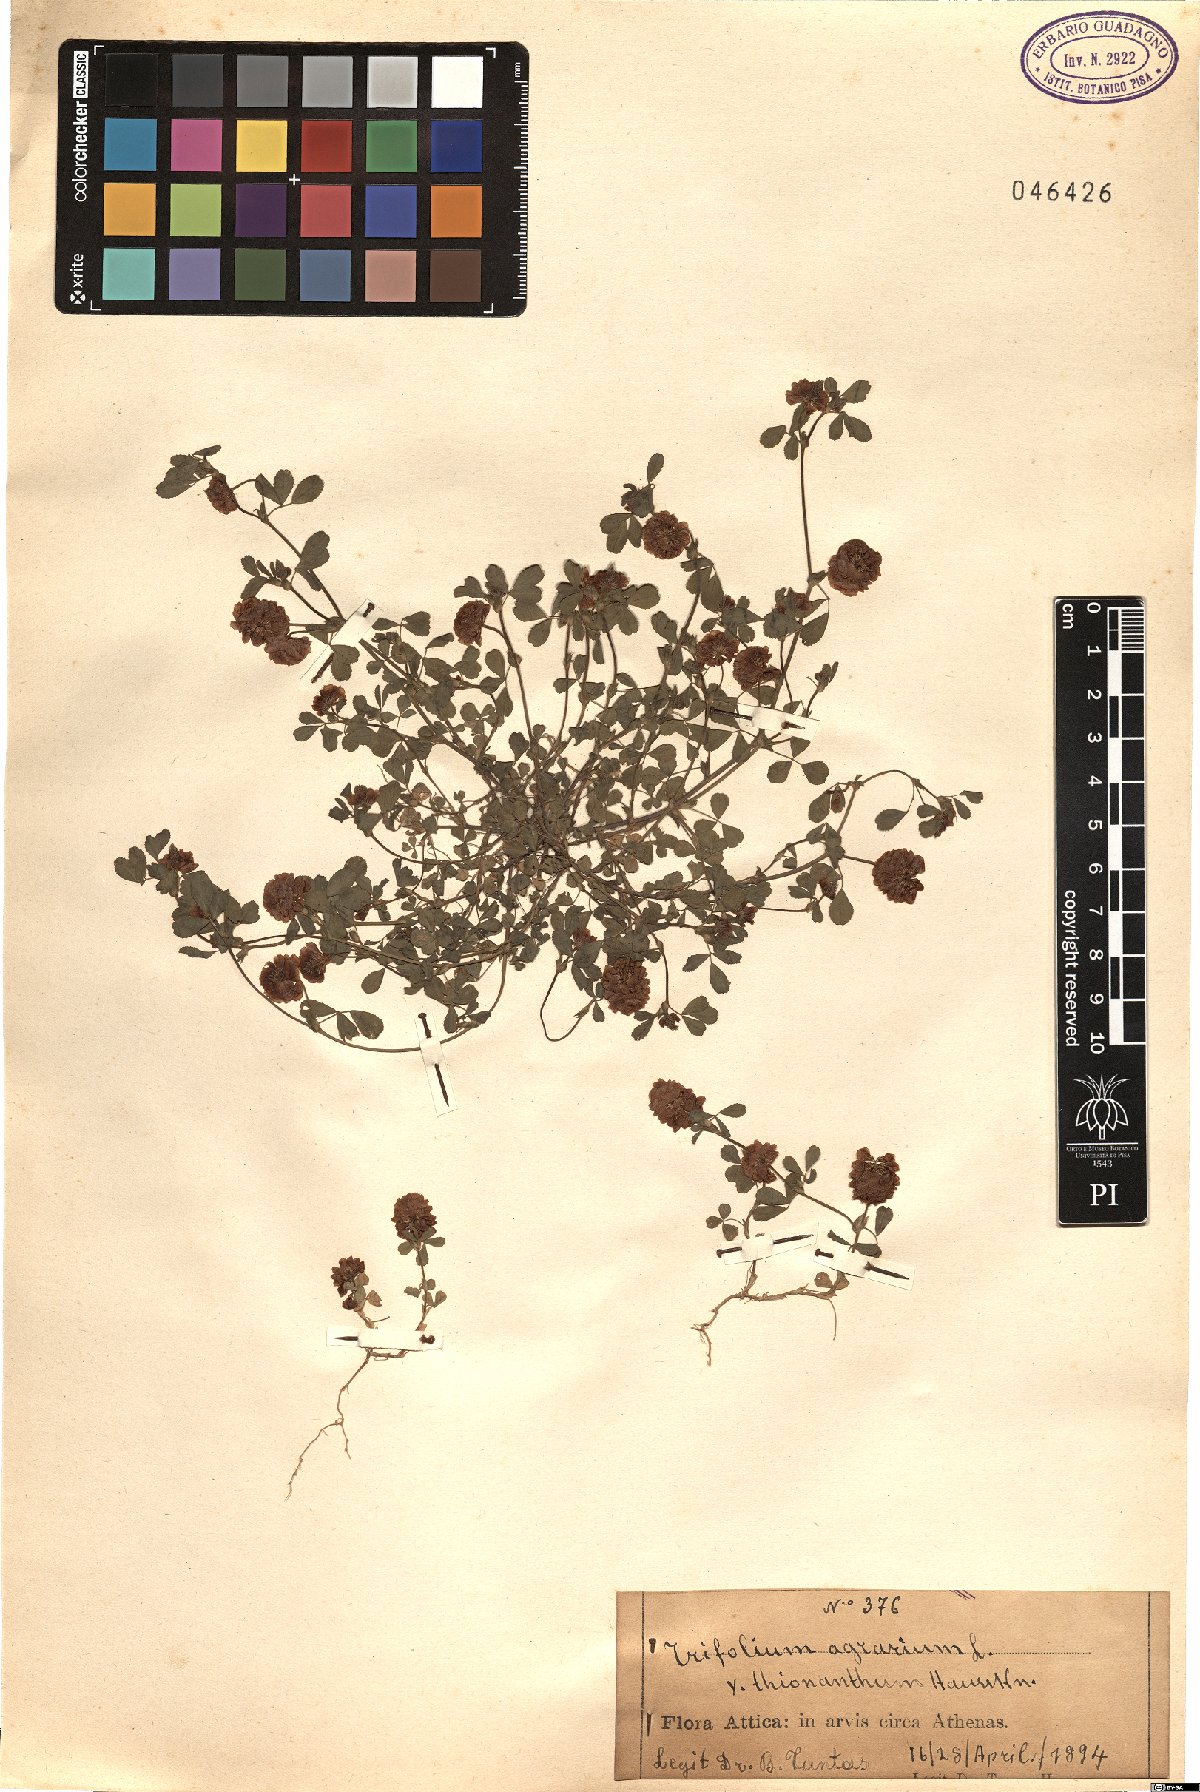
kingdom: Plantae
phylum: Tracheophyta
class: Magnoliopsida
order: Fabales
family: Fabaceae
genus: Trifolium
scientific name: Trifolium campestre
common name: Field clover
